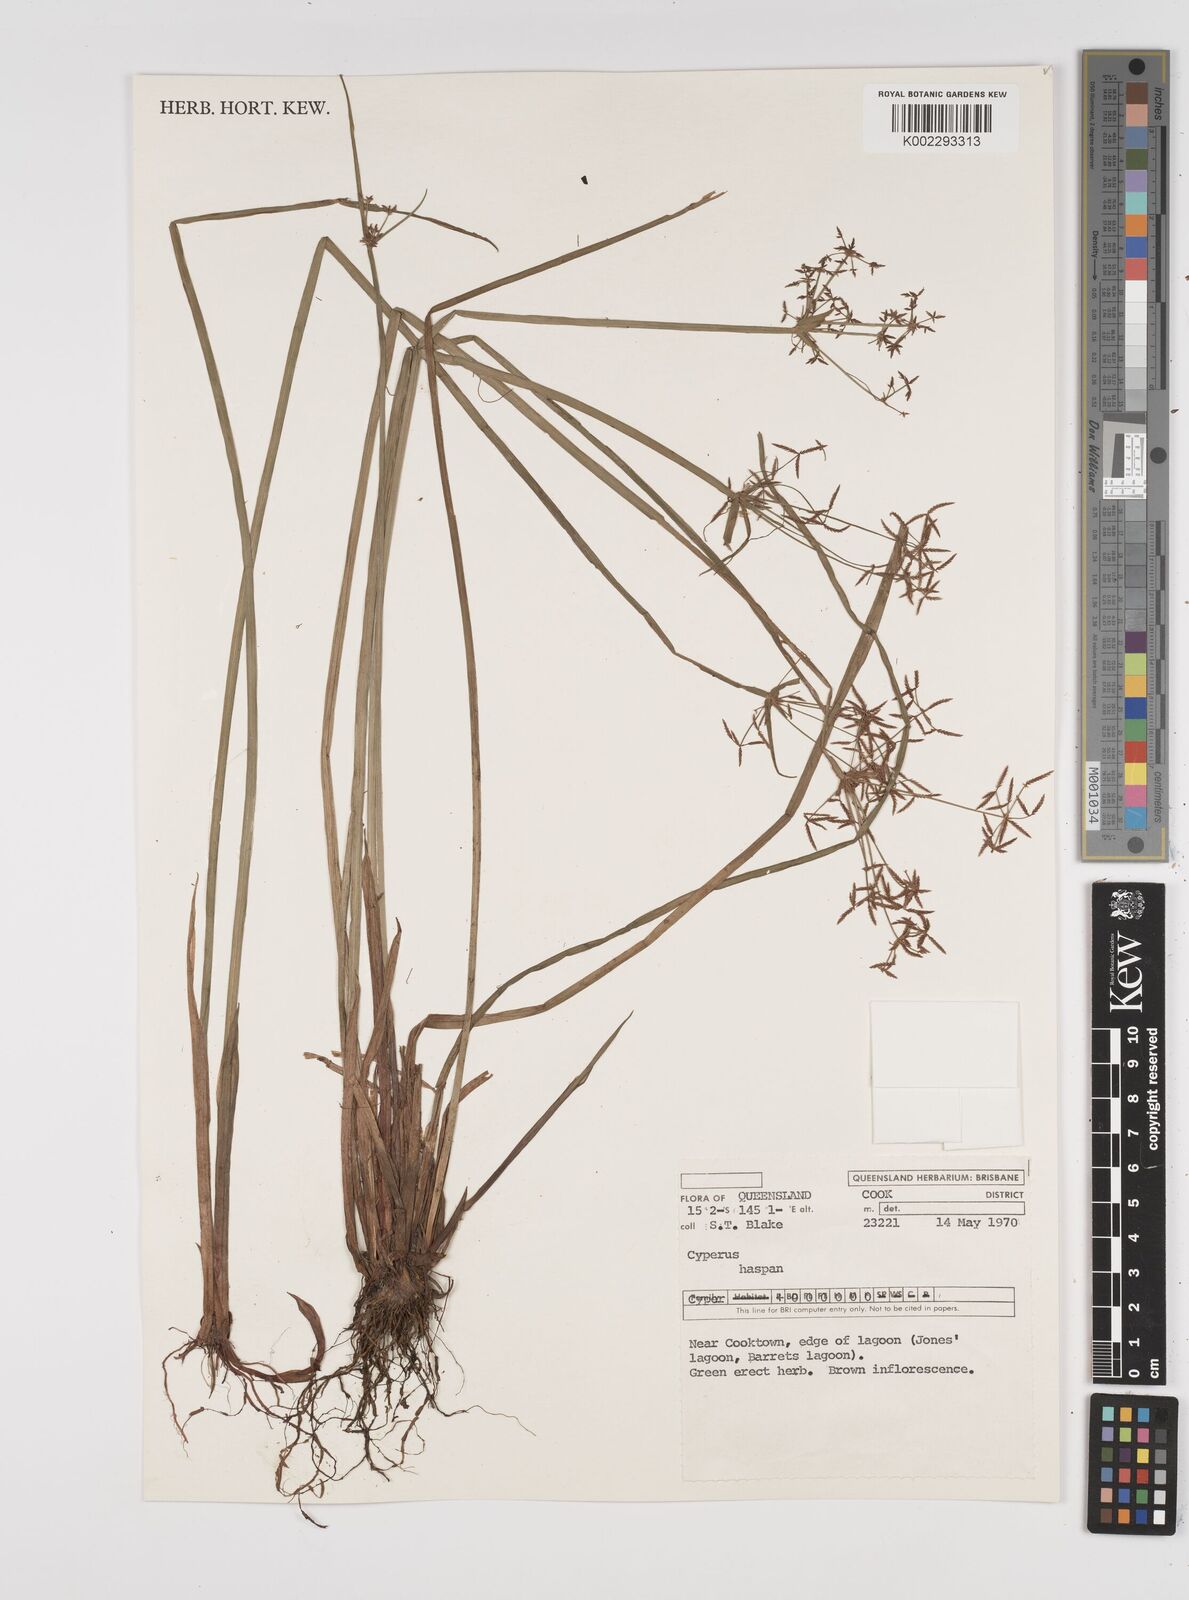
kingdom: Plantae
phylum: Tracheophyta
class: Liliopsida
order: Poales
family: Cyperaceae
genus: Cyperus
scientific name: Cyperus haspan
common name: Haspan flatsedge
